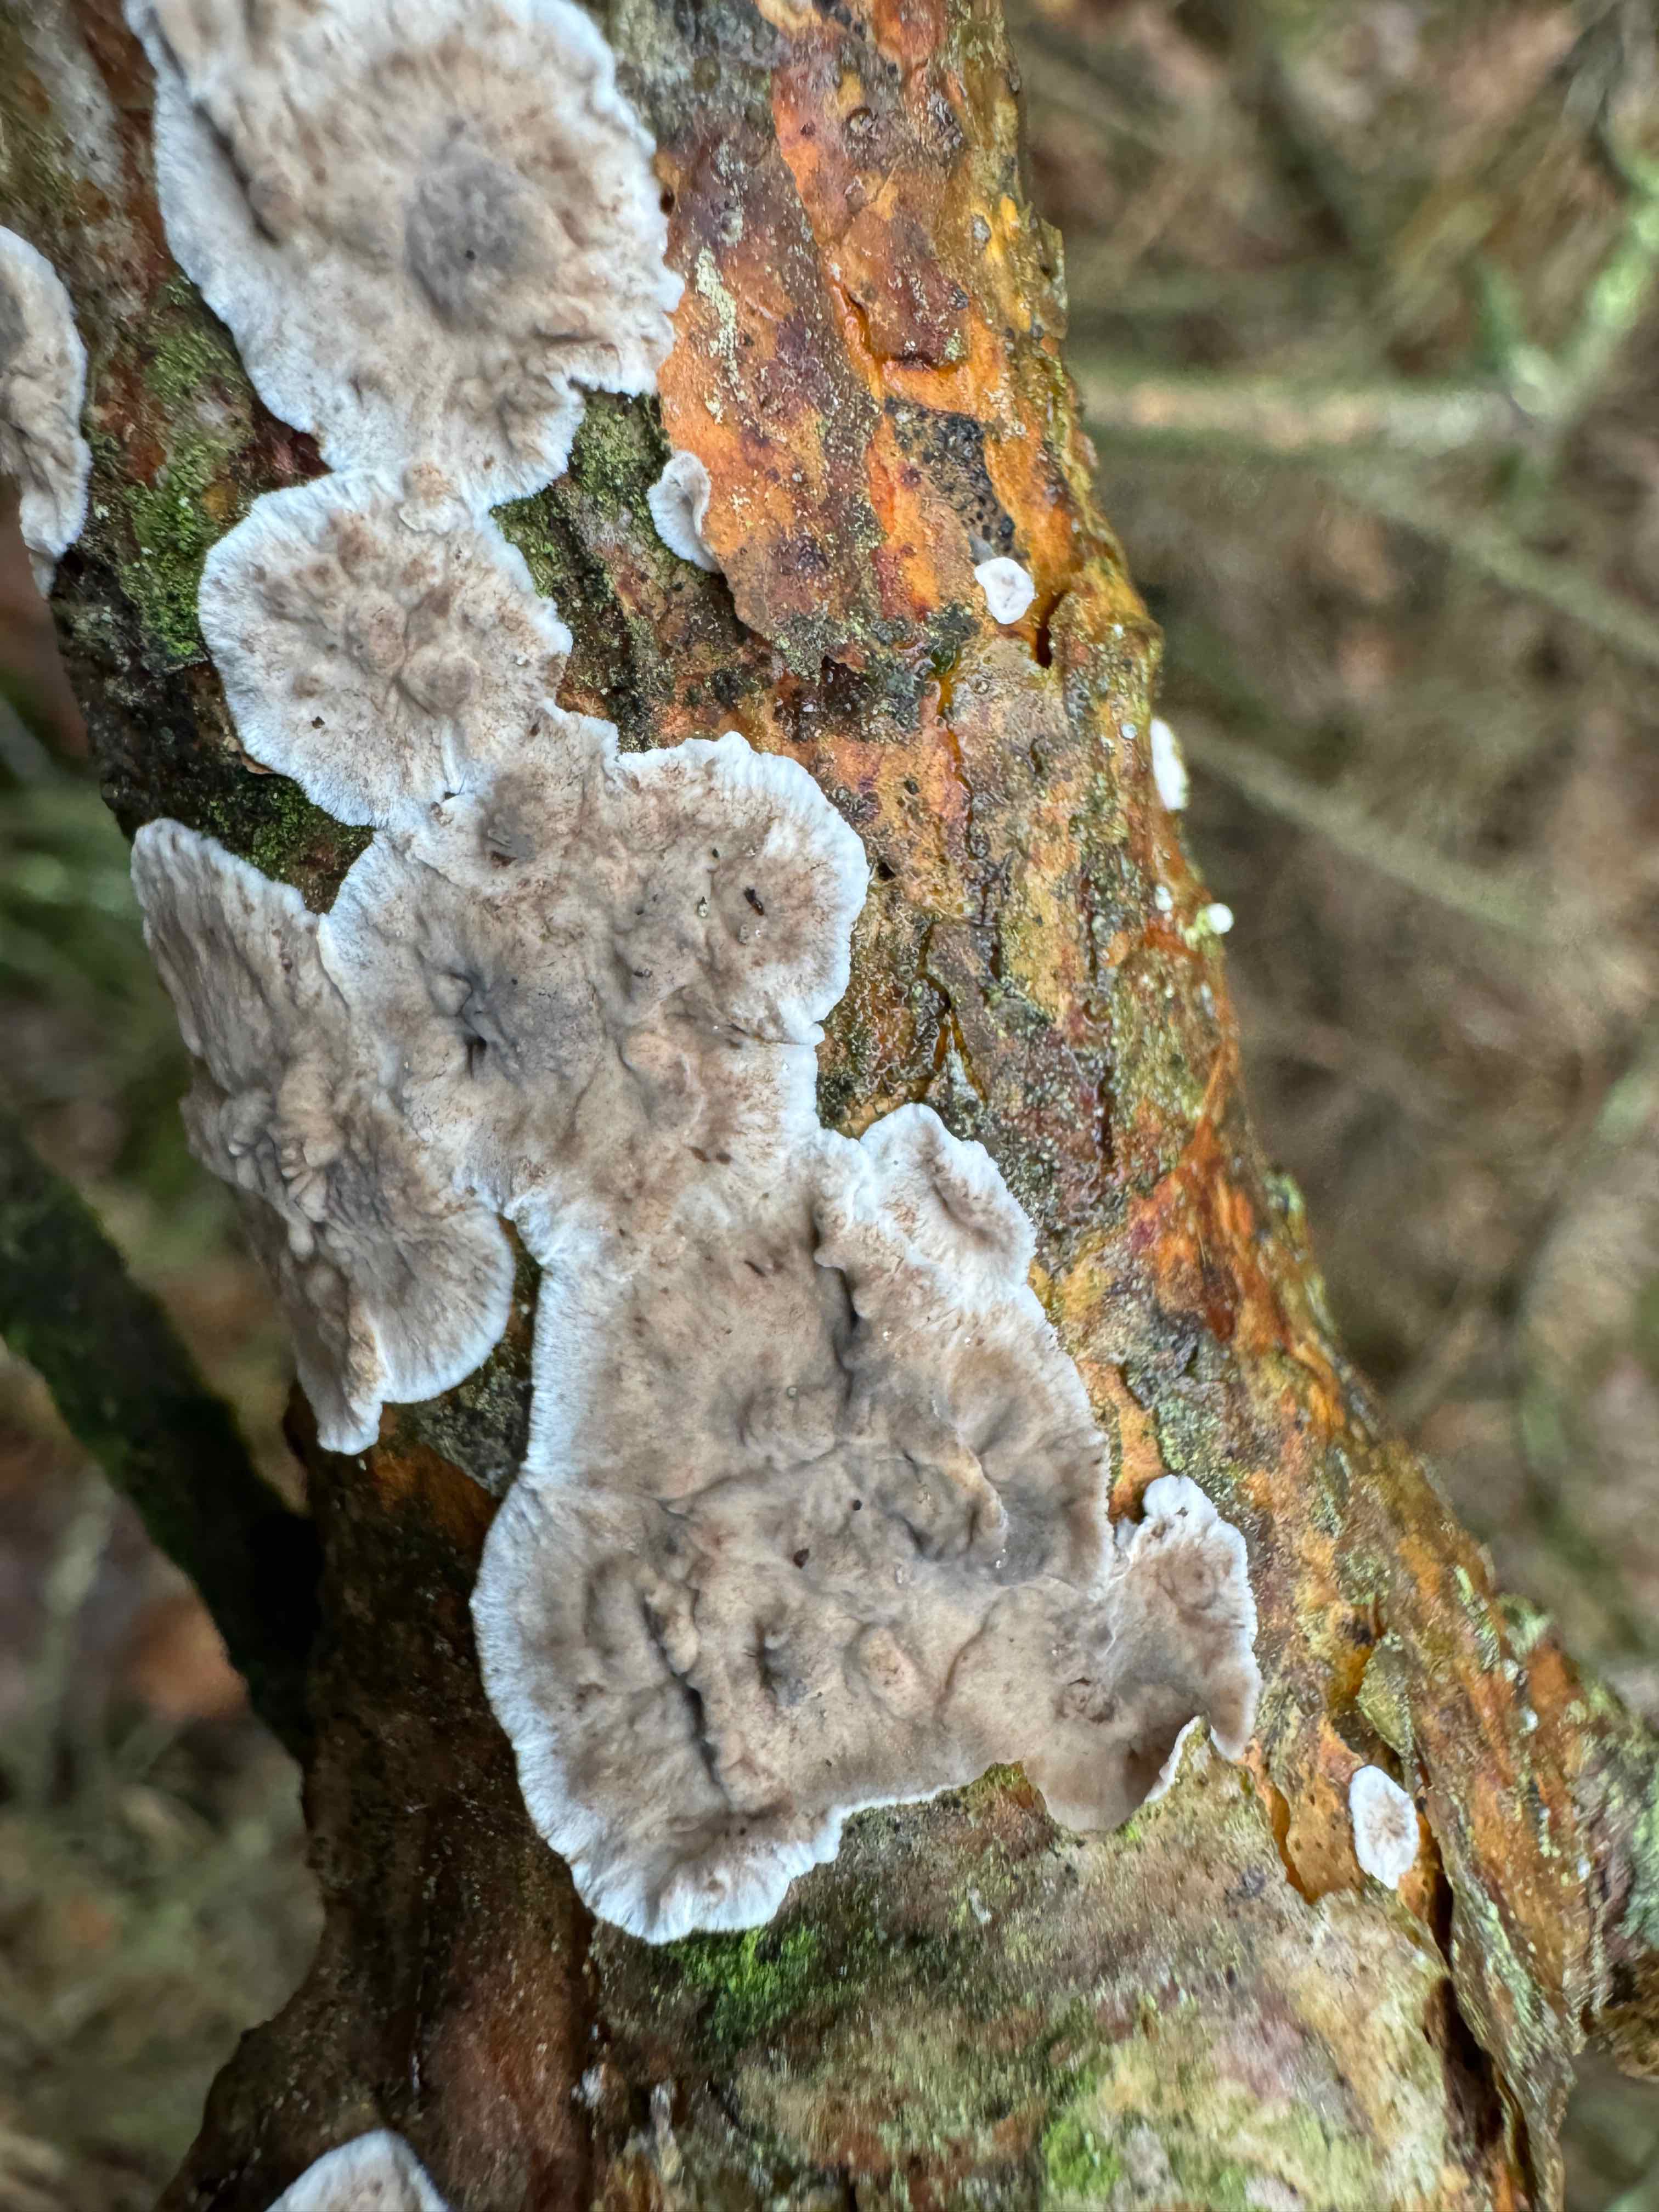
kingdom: Fungi
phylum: Basidiomycota
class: Agaricomycetes
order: Russulales
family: Stereaceae
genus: Stereum
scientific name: Stereum sanguinolentum
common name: blødende lædersvamp
